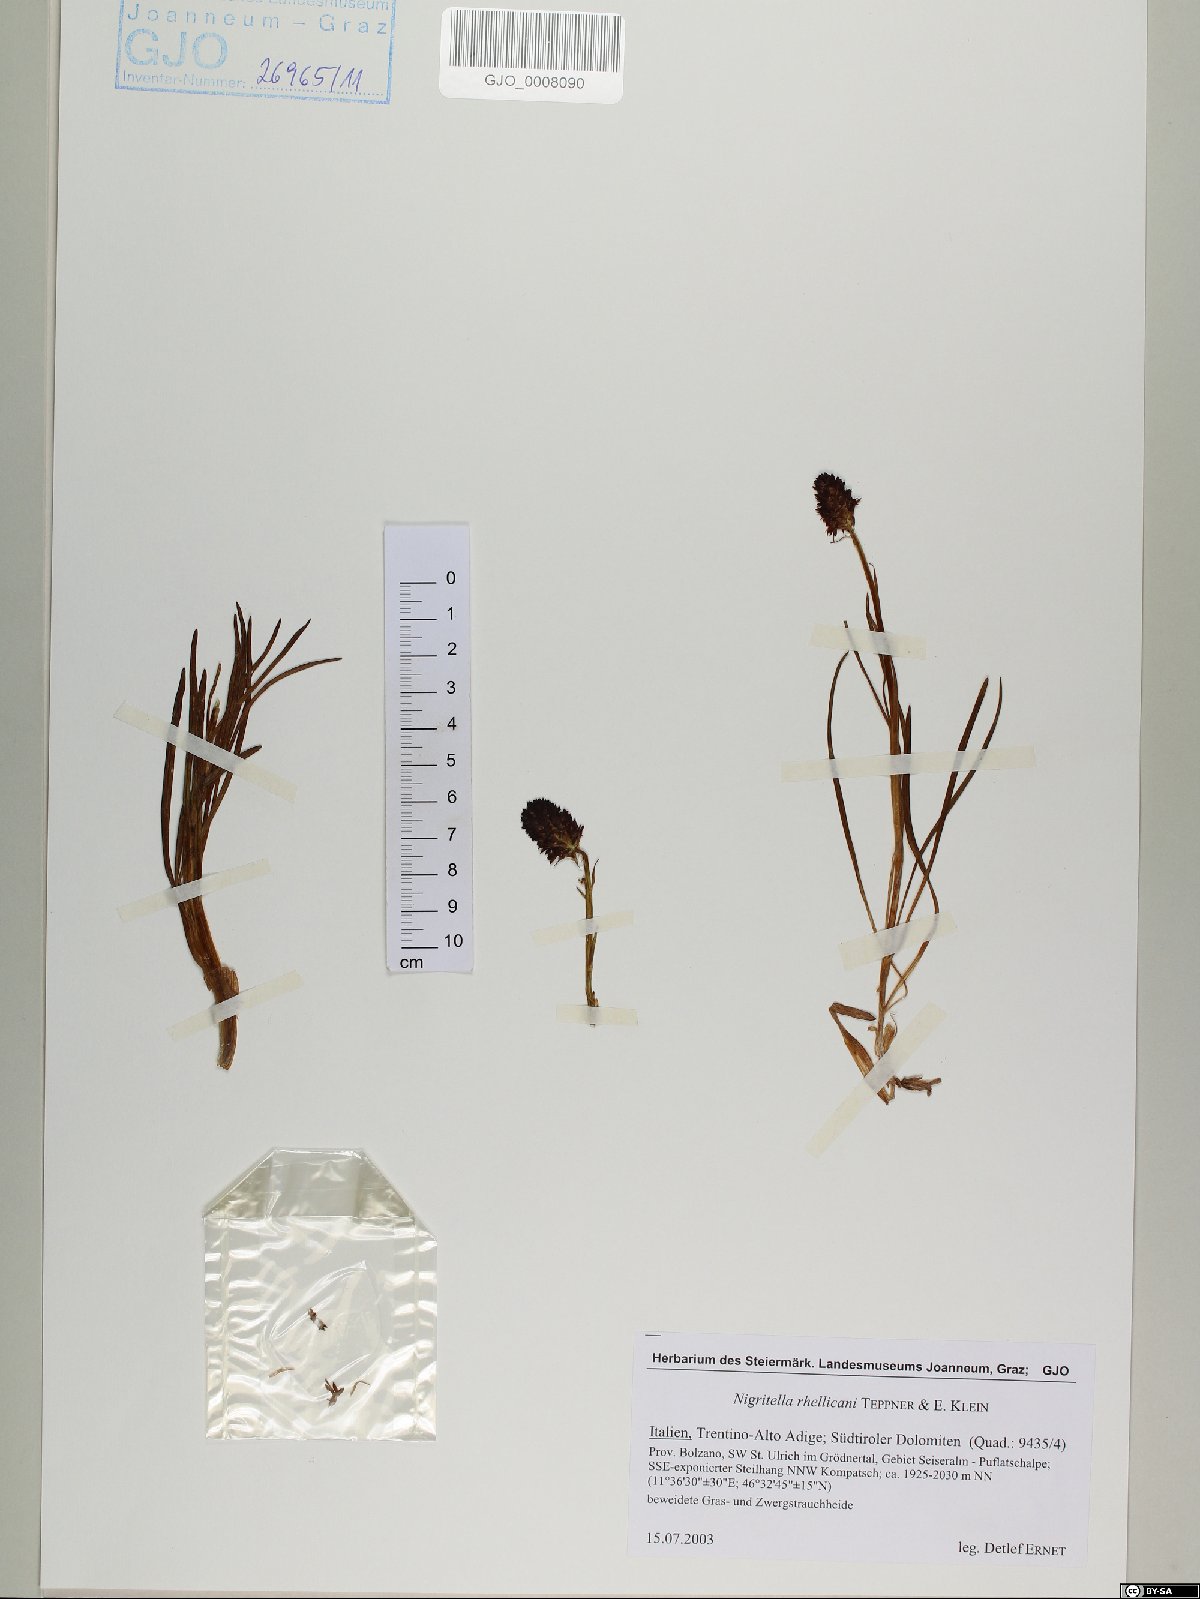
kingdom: Plantae
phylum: Tracheophyta
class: Liliopsida
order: Asparagales
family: Orchidaceae
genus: Gymnadenia
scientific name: Gymnadenia rhellicani
